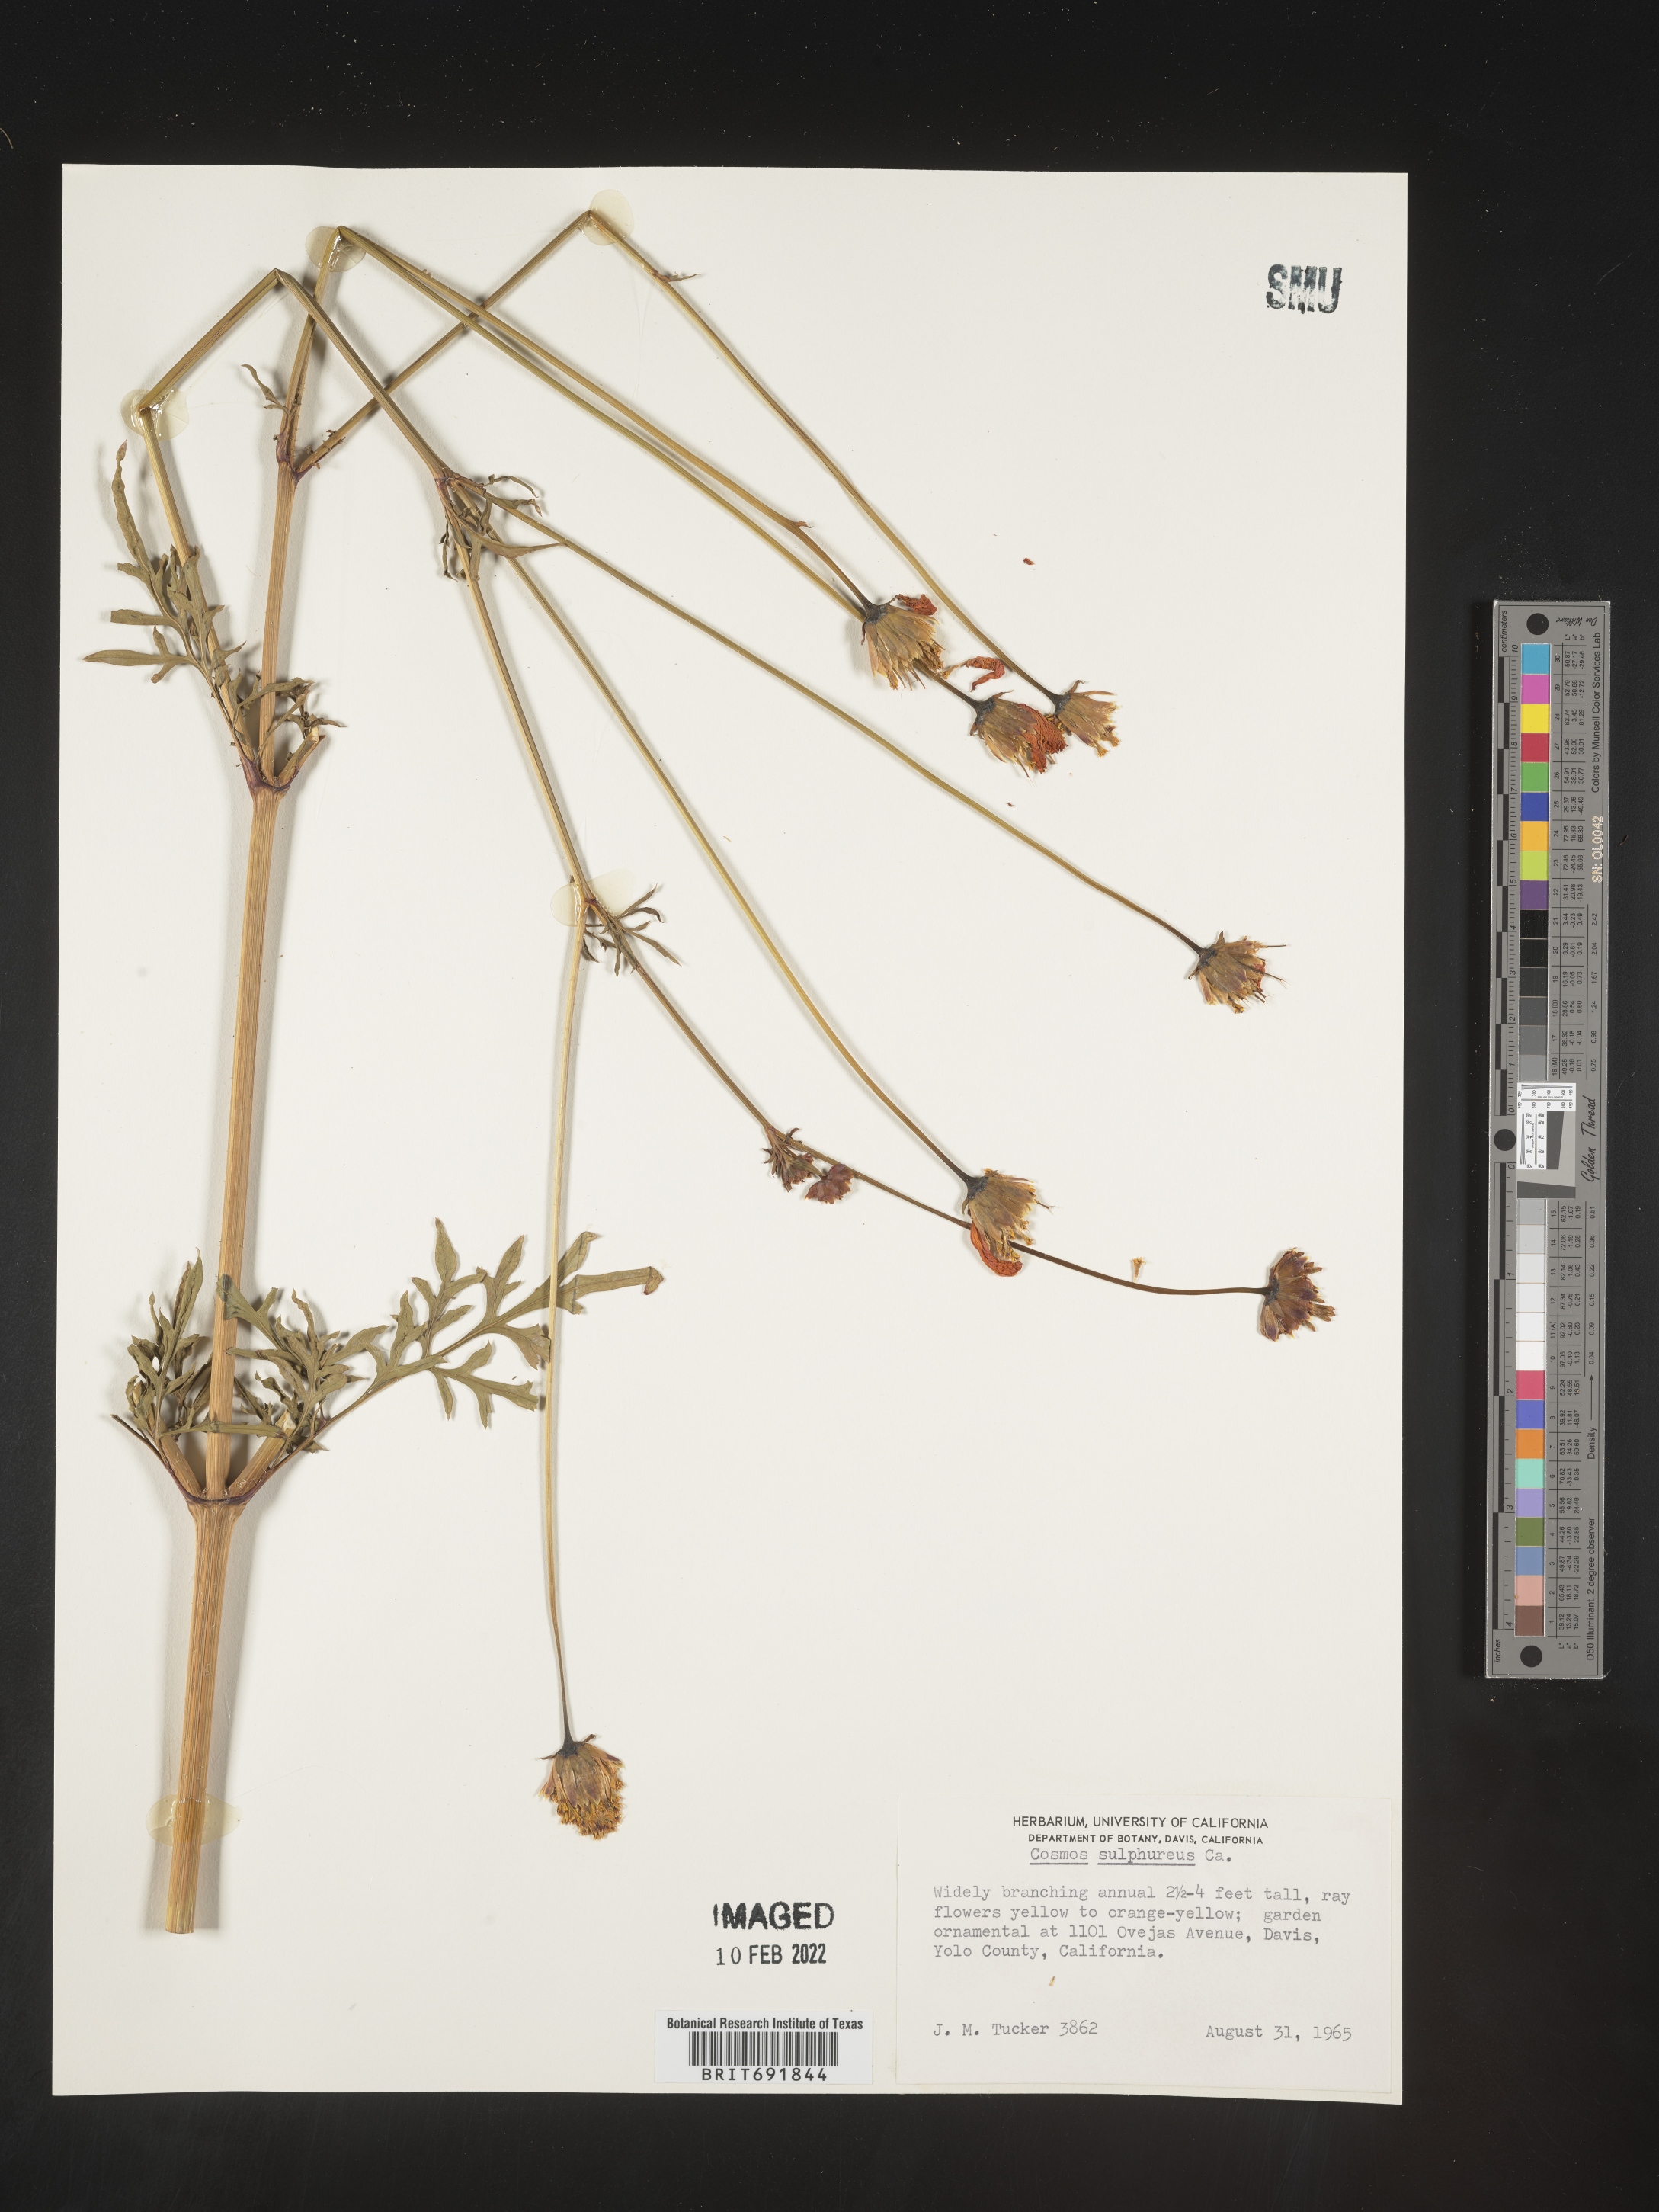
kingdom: Plantae
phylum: Tracheophyta
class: Magnoliopsida
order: Asterales
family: Asteraceae
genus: Cosmos
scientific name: Cosmos
